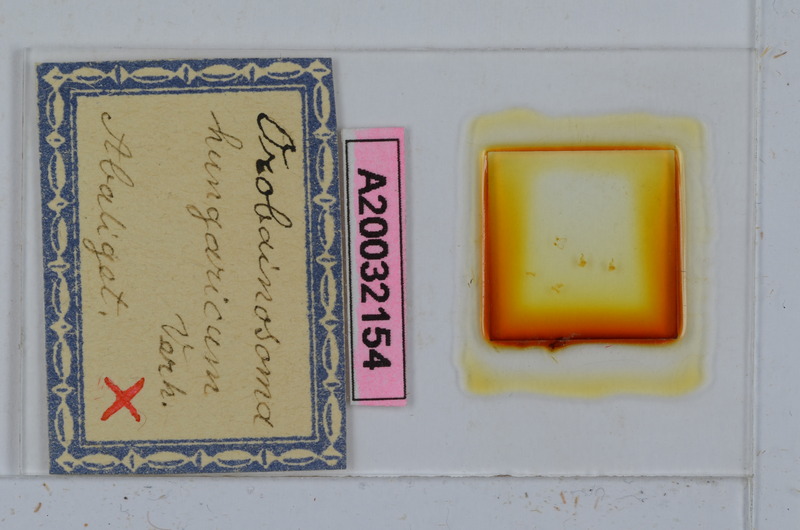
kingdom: Animalia
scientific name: Animalia
